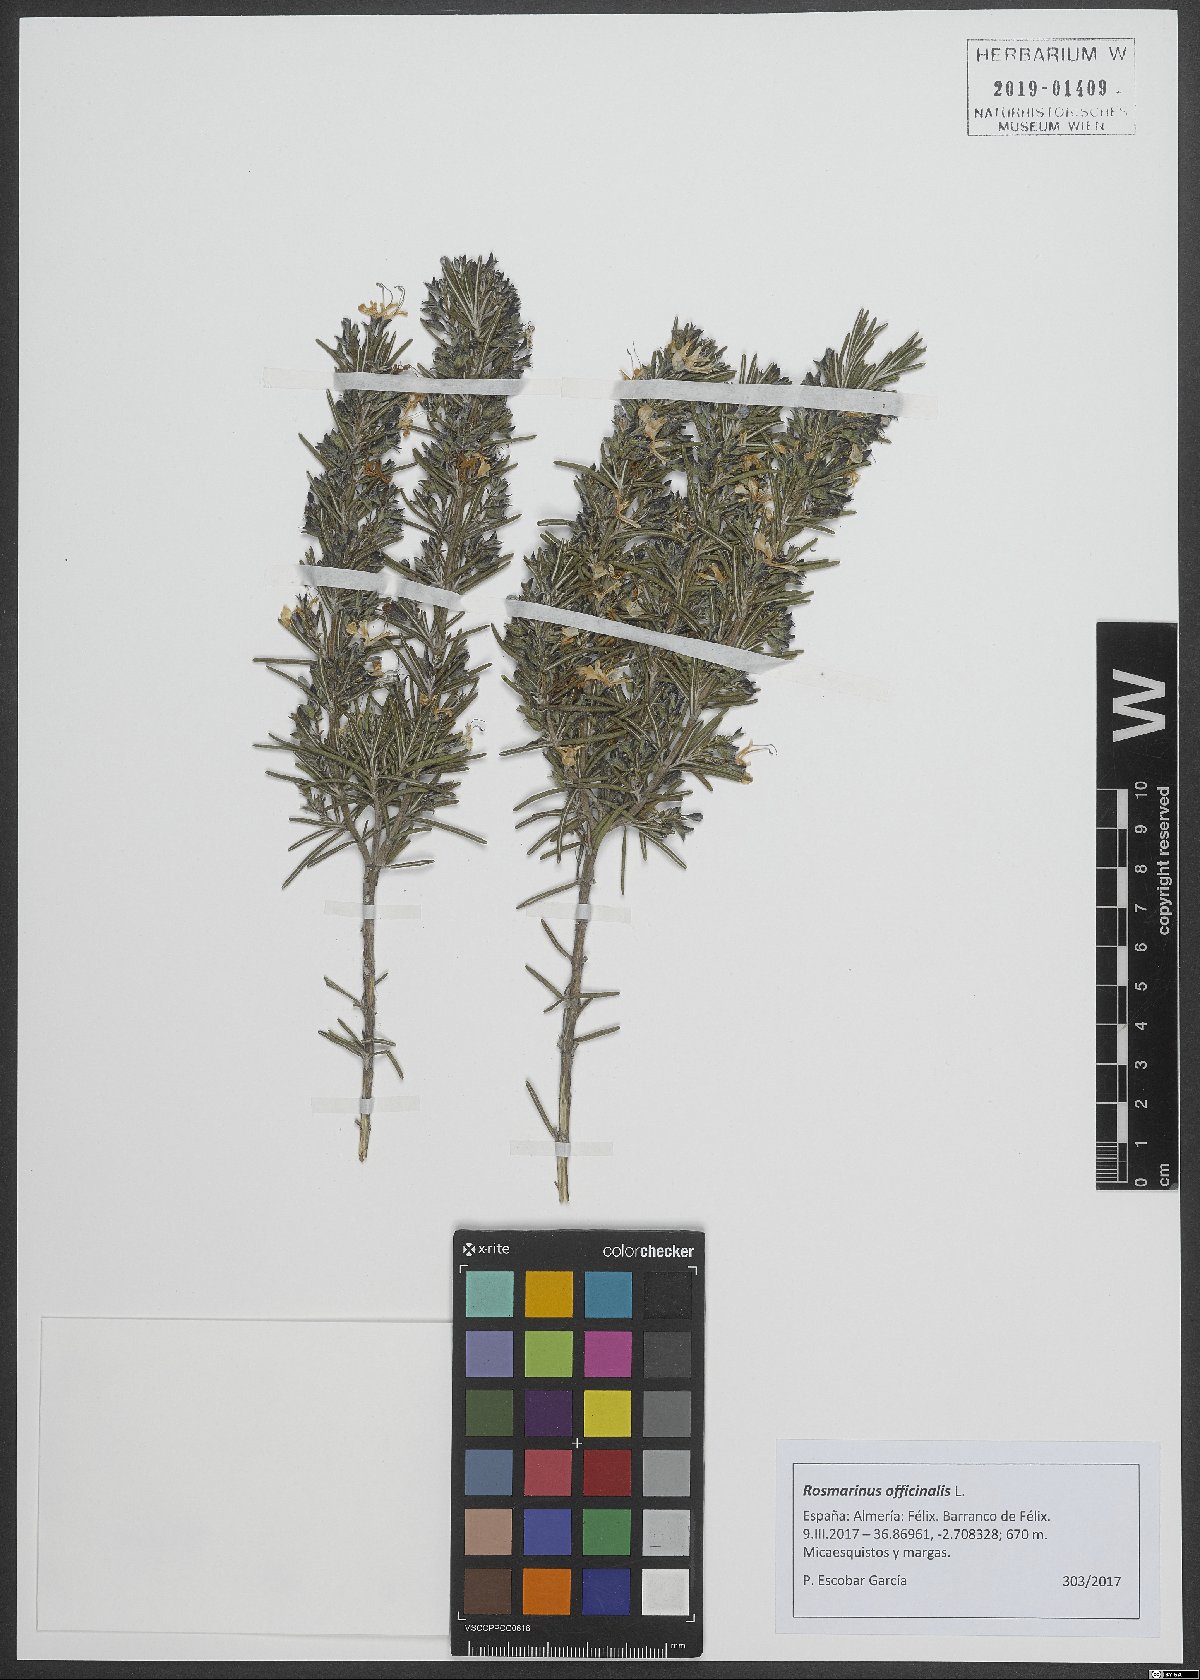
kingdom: Plantae
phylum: Tracheophyta
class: Magnoliopsida
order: Lamiales
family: Lamiaceae
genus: Salvia
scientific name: Salvia rosmarinus
